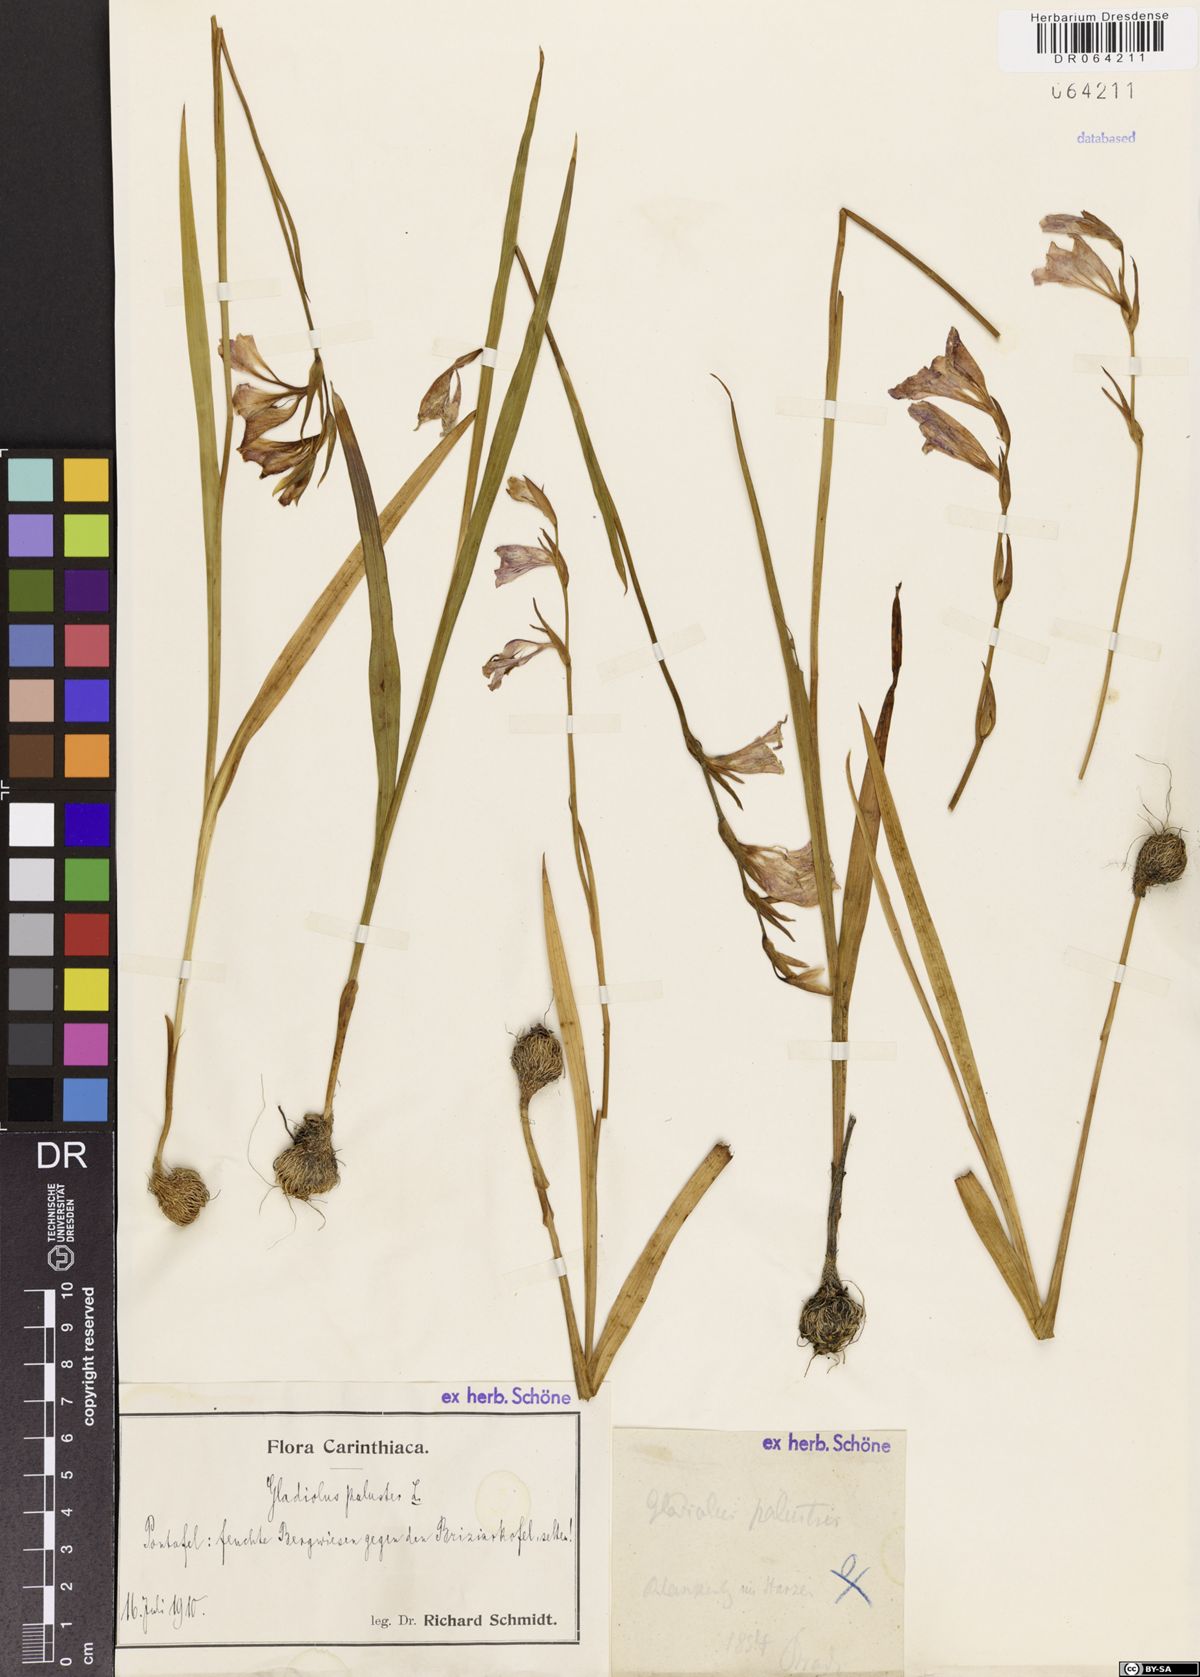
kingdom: Plantae
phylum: Tracheophyta
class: Liliopsida
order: Asparagales
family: Iridaceae
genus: Gladiolus
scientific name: Gladiolus palustris
